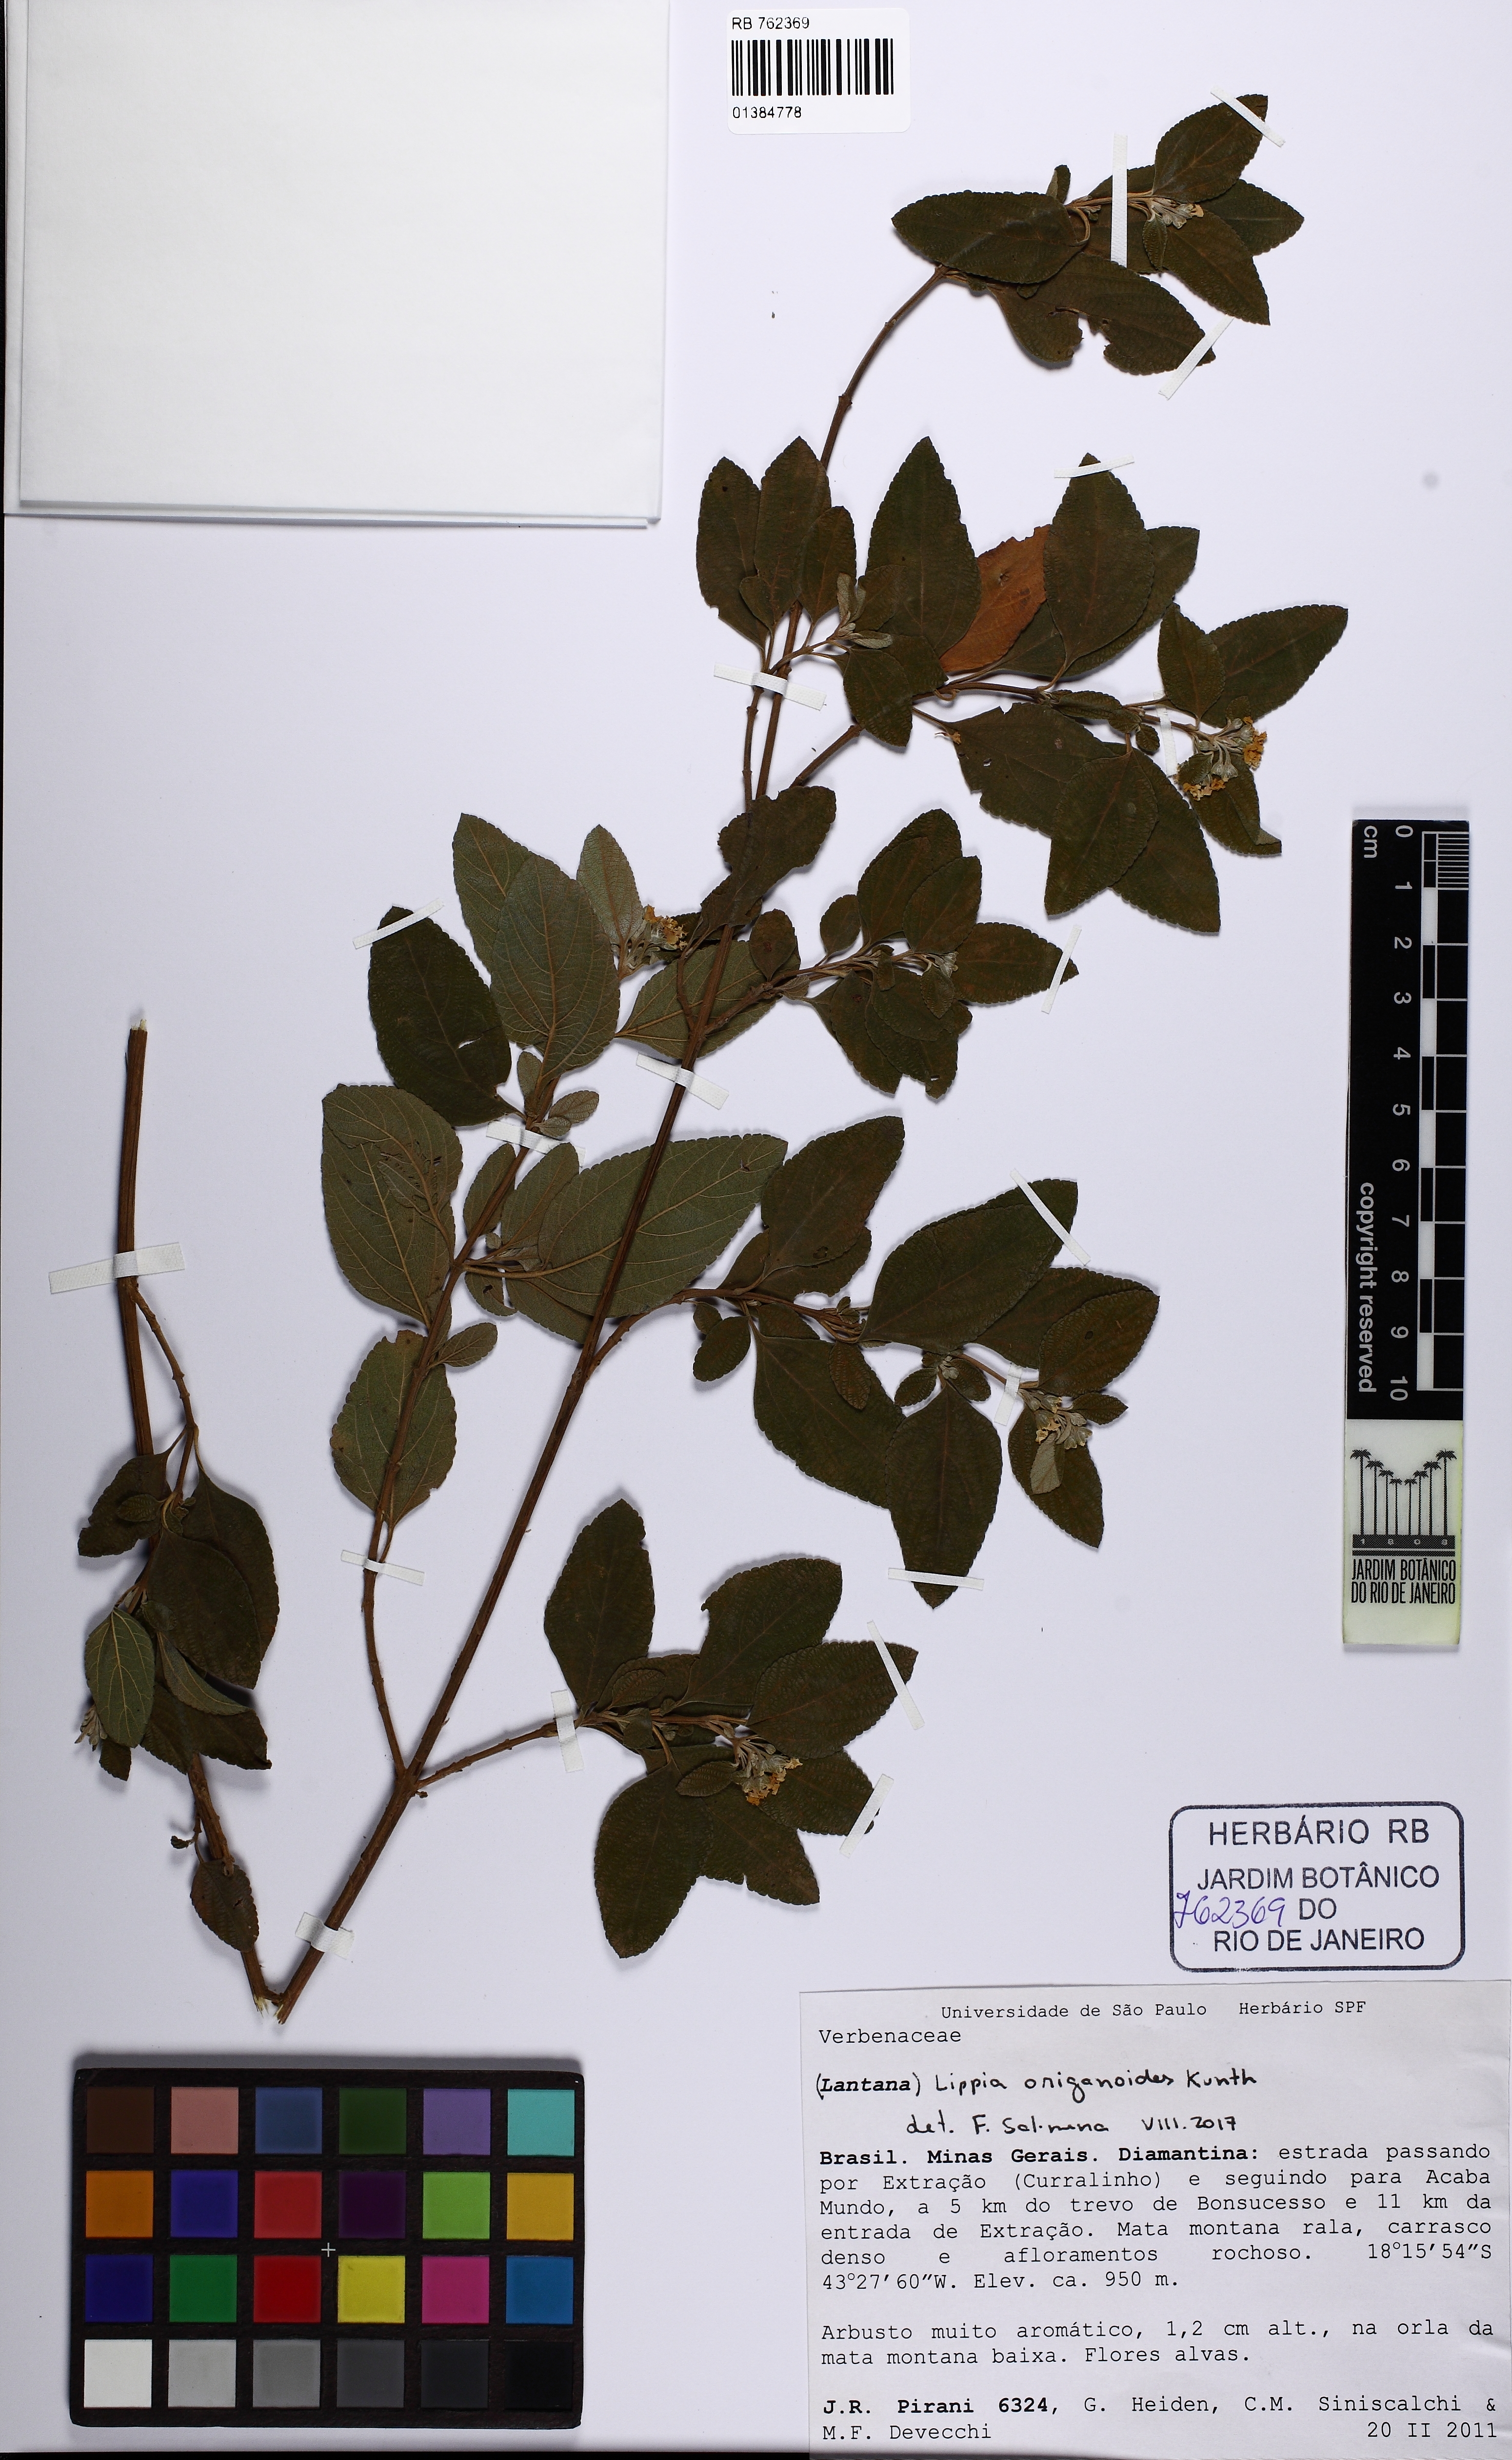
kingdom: Plantae
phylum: Tracheophyta
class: Magnoliopsida
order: Lamiales
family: Verbenaceae
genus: Lippia
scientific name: Lippia origanoides
